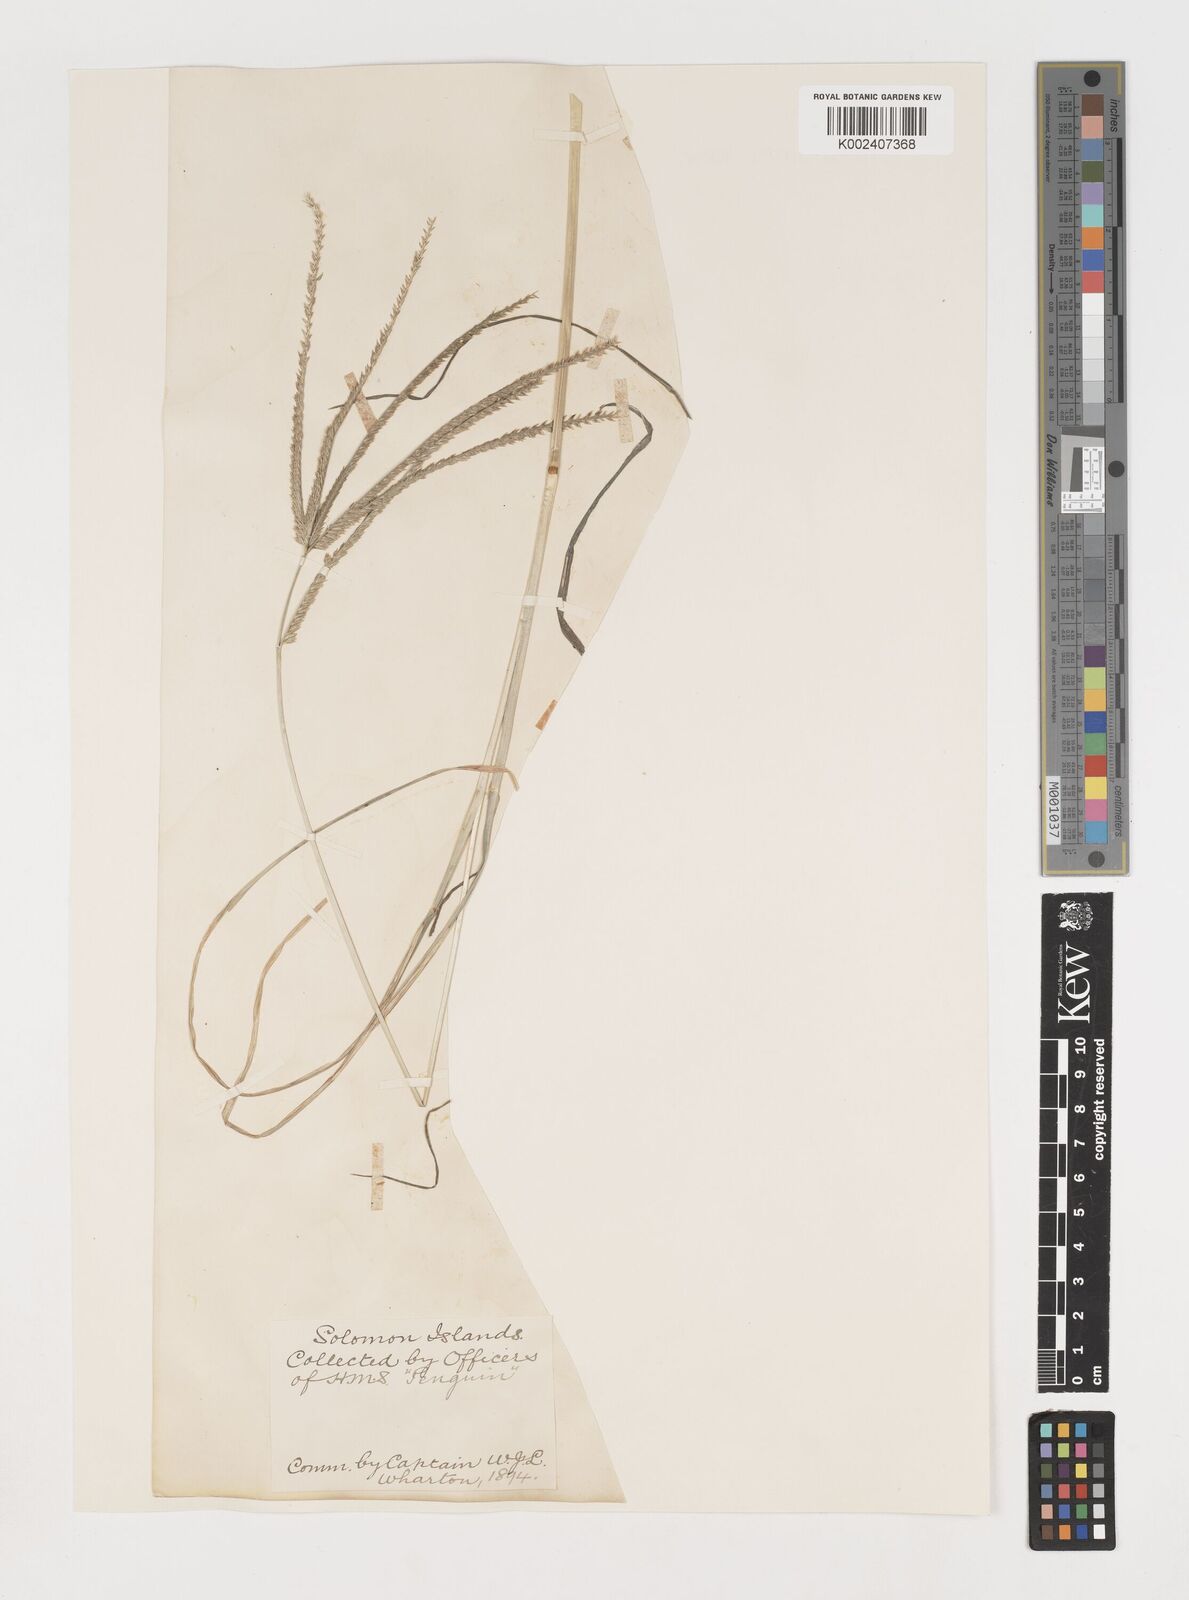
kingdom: Plantae
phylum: Tracheophyta
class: Liliopsida
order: Poales
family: Poaceae
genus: Eleusine
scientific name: Eleusine indica
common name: Yard-grass
